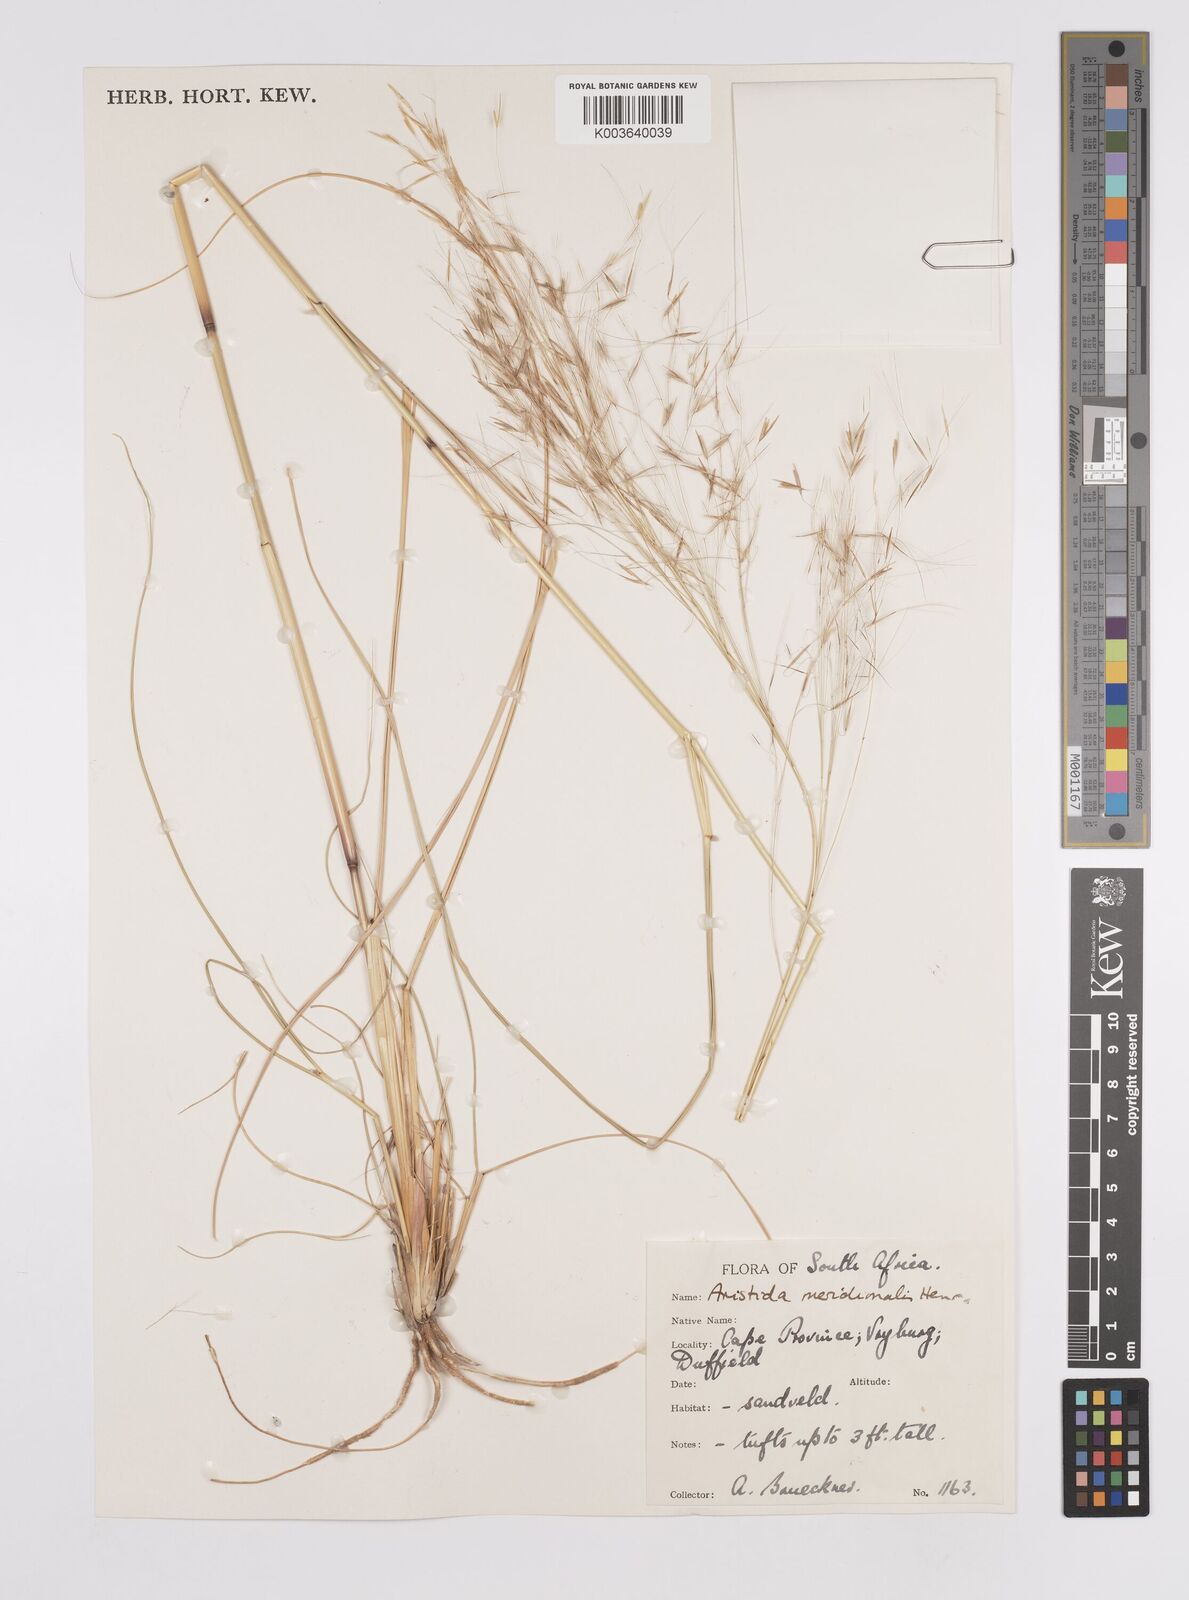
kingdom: Plantae
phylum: Tracheophyta
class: Liliopsida
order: Poales
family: Poaceae
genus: Aristida
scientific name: Aristida meridionalis
